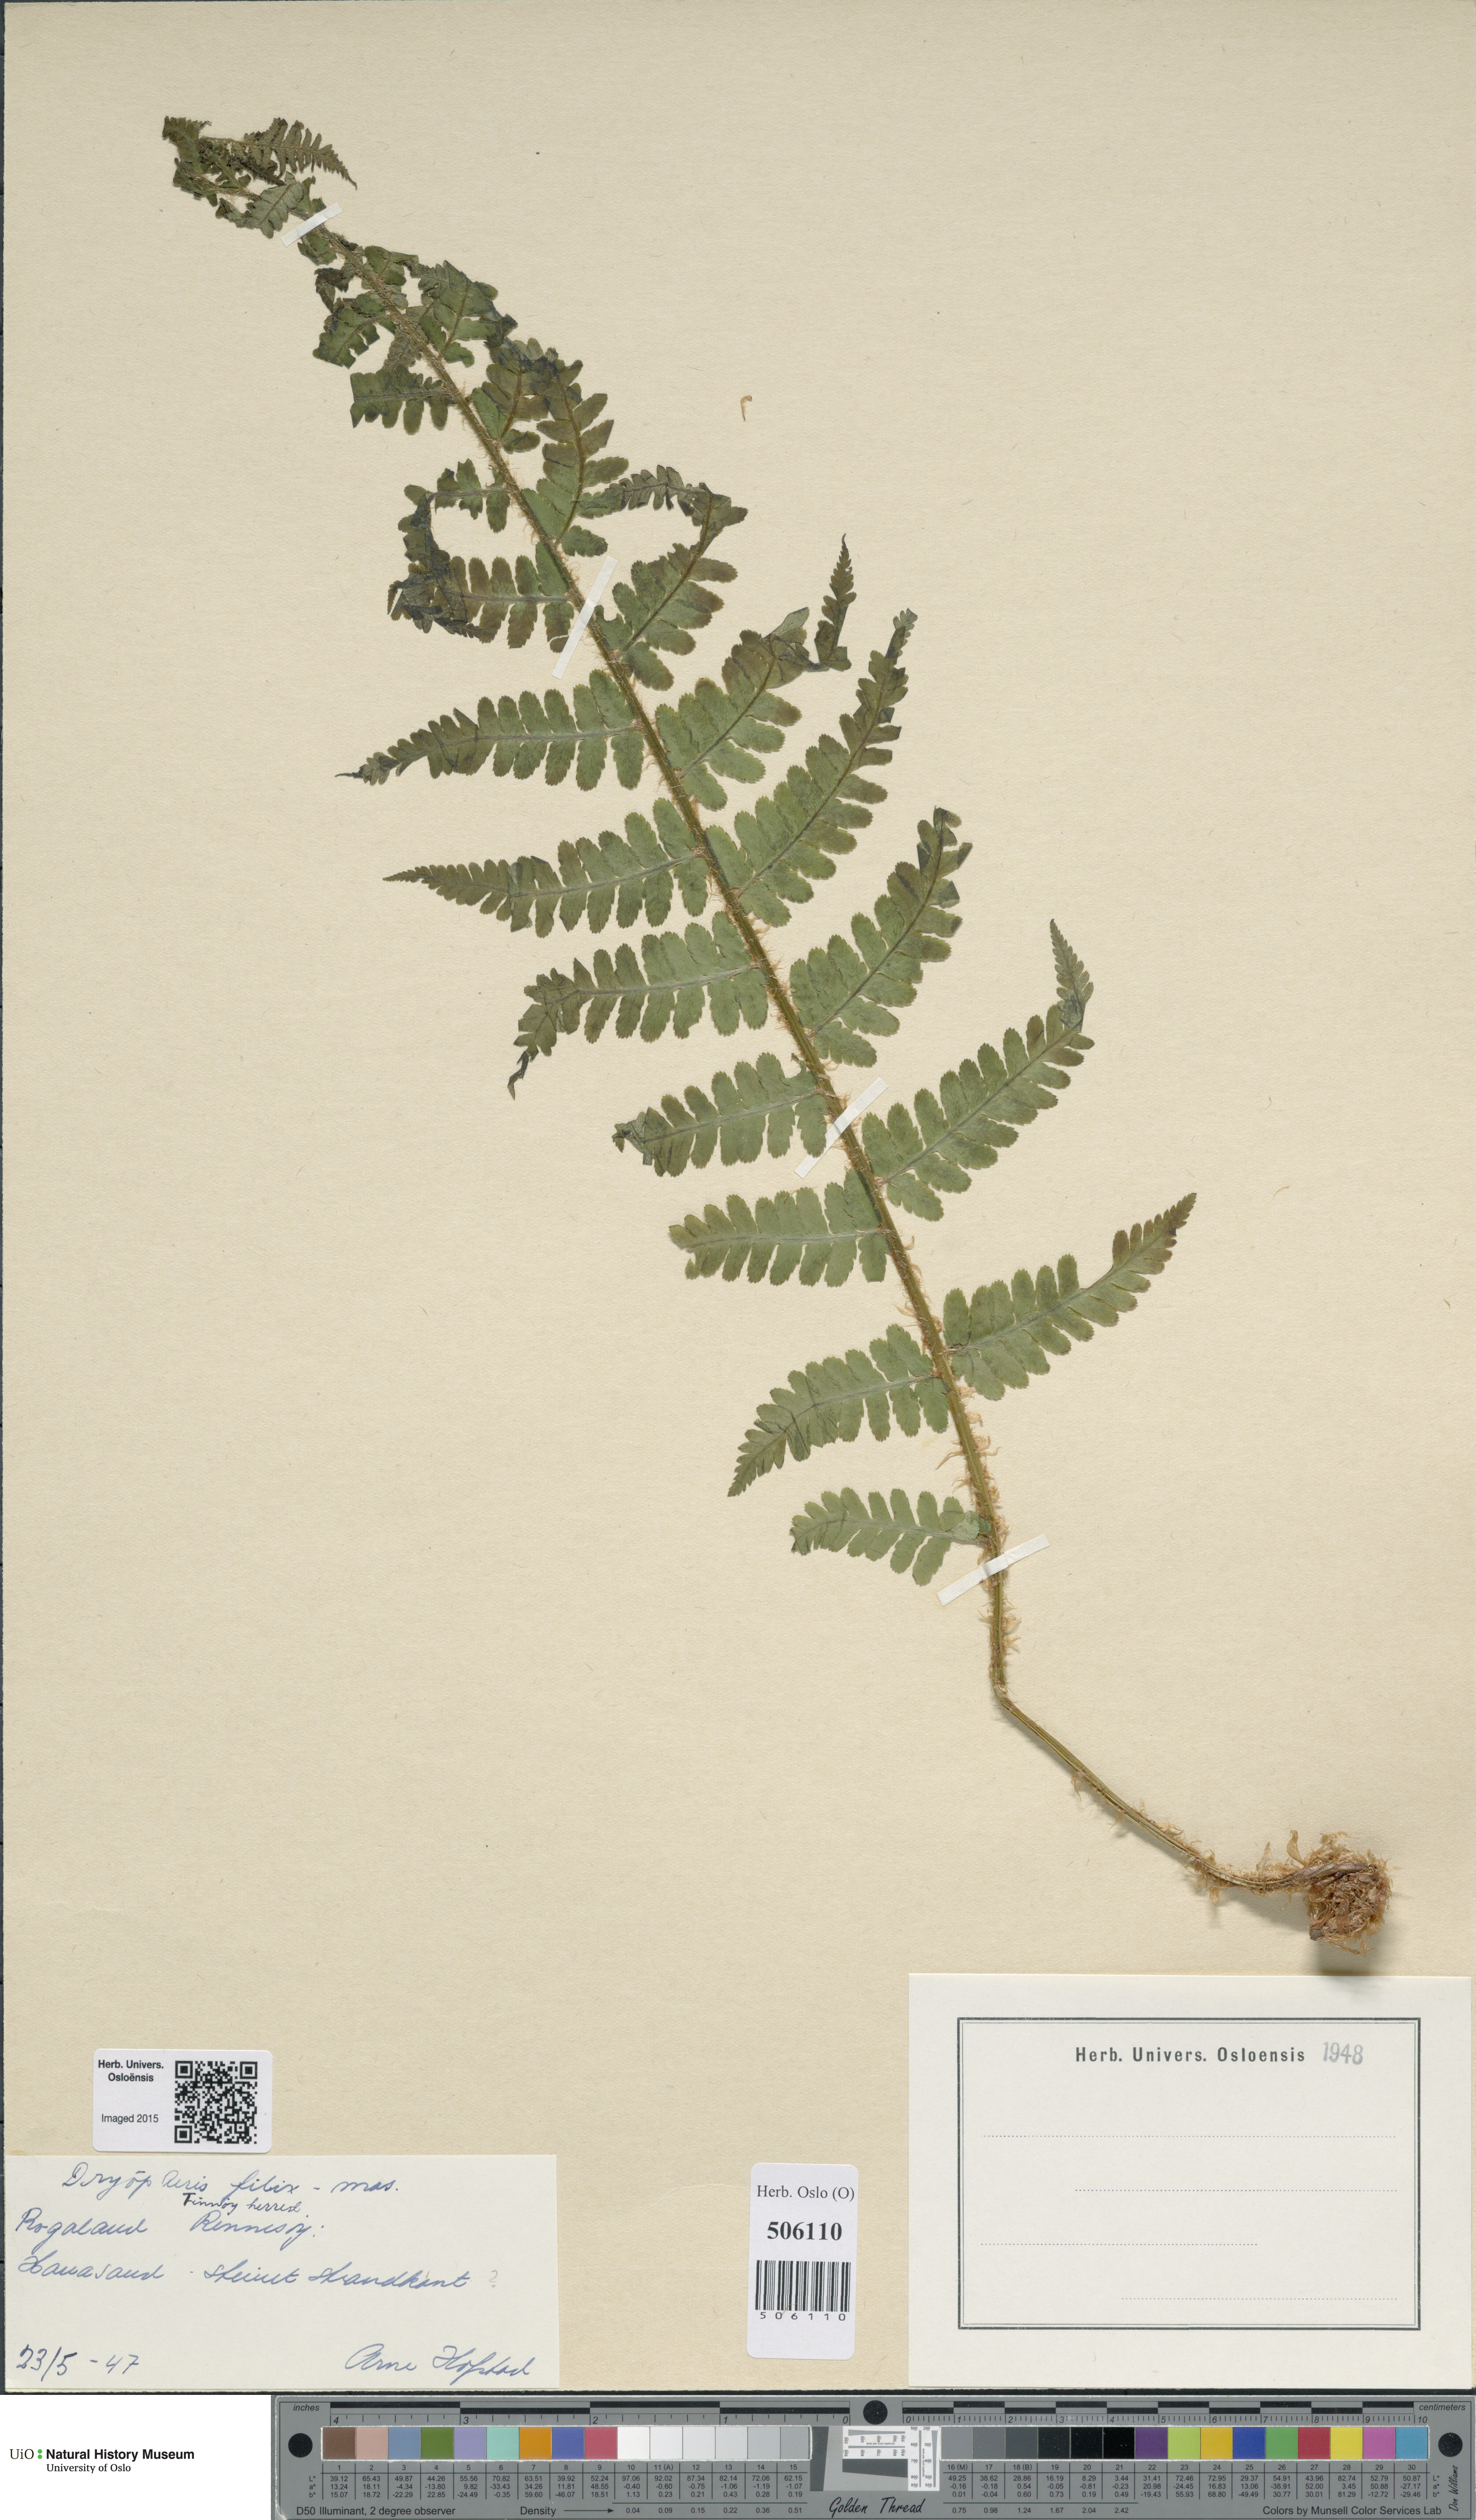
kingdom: Plantae
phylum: Tracheophyta
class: Polypodiopsida
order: Polypodiales
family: Dryopteridaceae
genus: Dryopteris
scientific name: Dryopteris filix-mas
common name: Male fern
